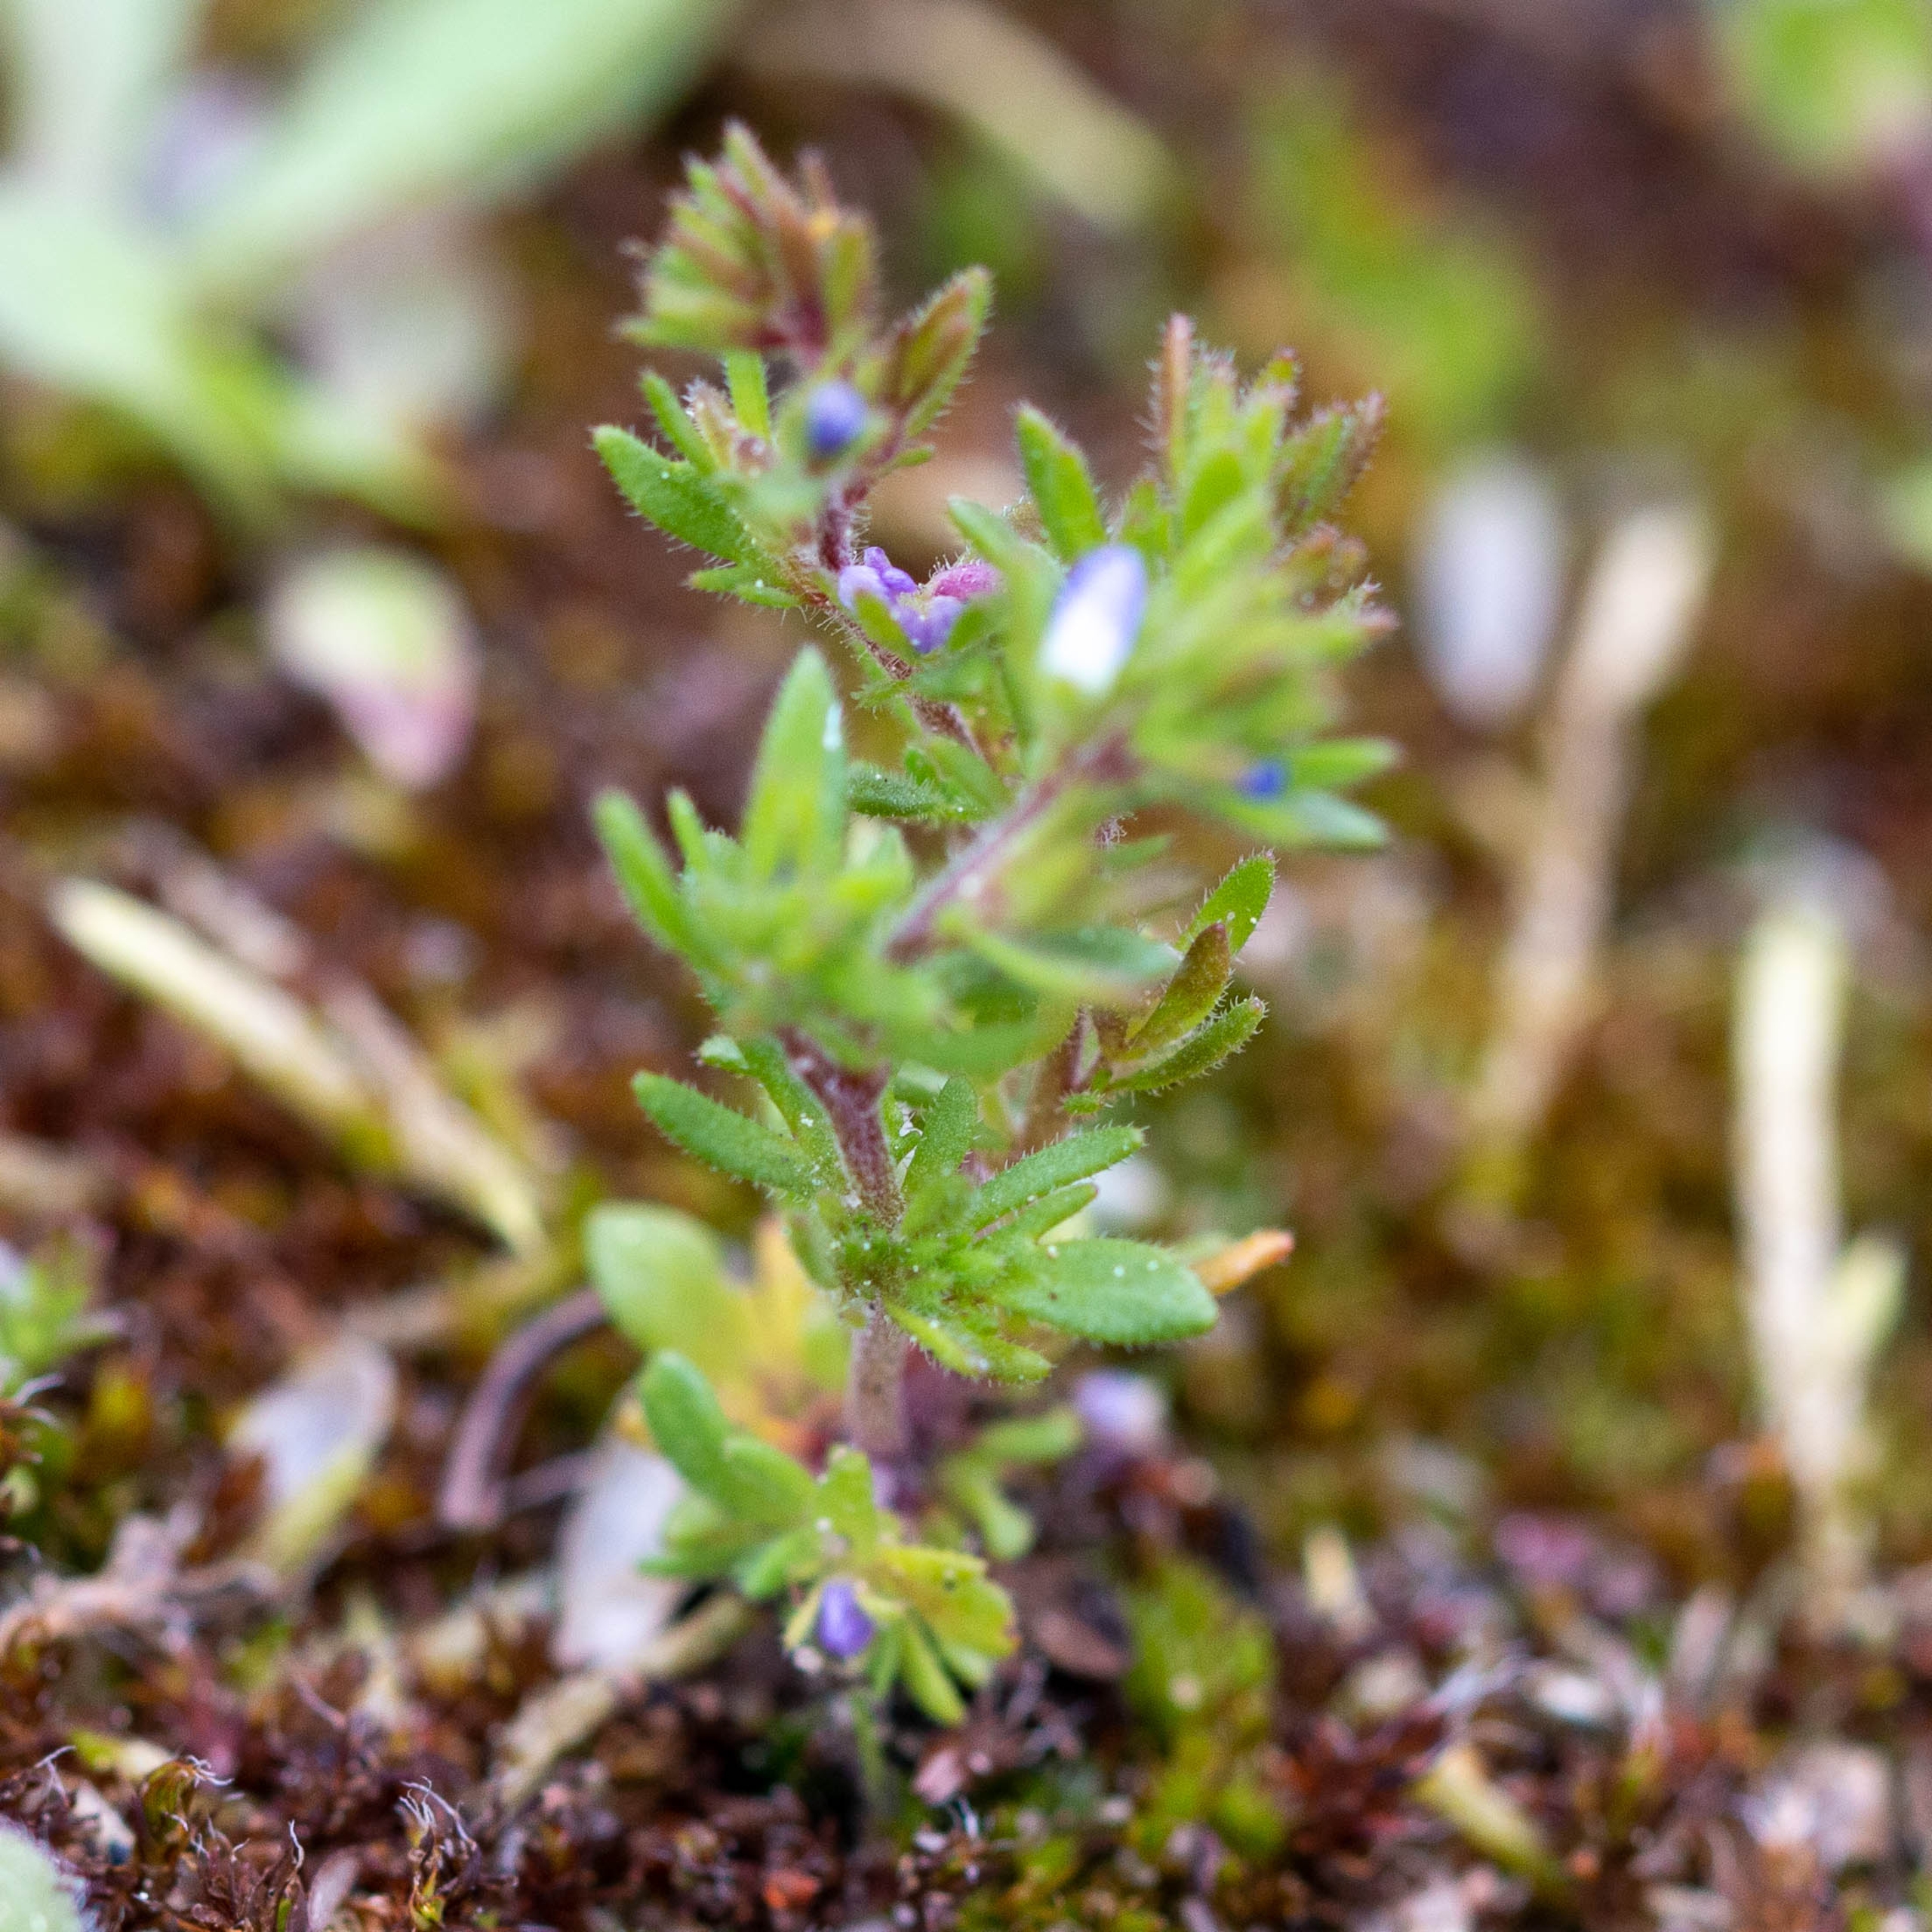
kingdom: Plantae
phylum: Tracheophyta
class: Magnoliopsida
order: Lamiales
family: Plantaginaceae
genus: Veronica
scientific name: Veronica verna
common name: Vår-ærenpris
